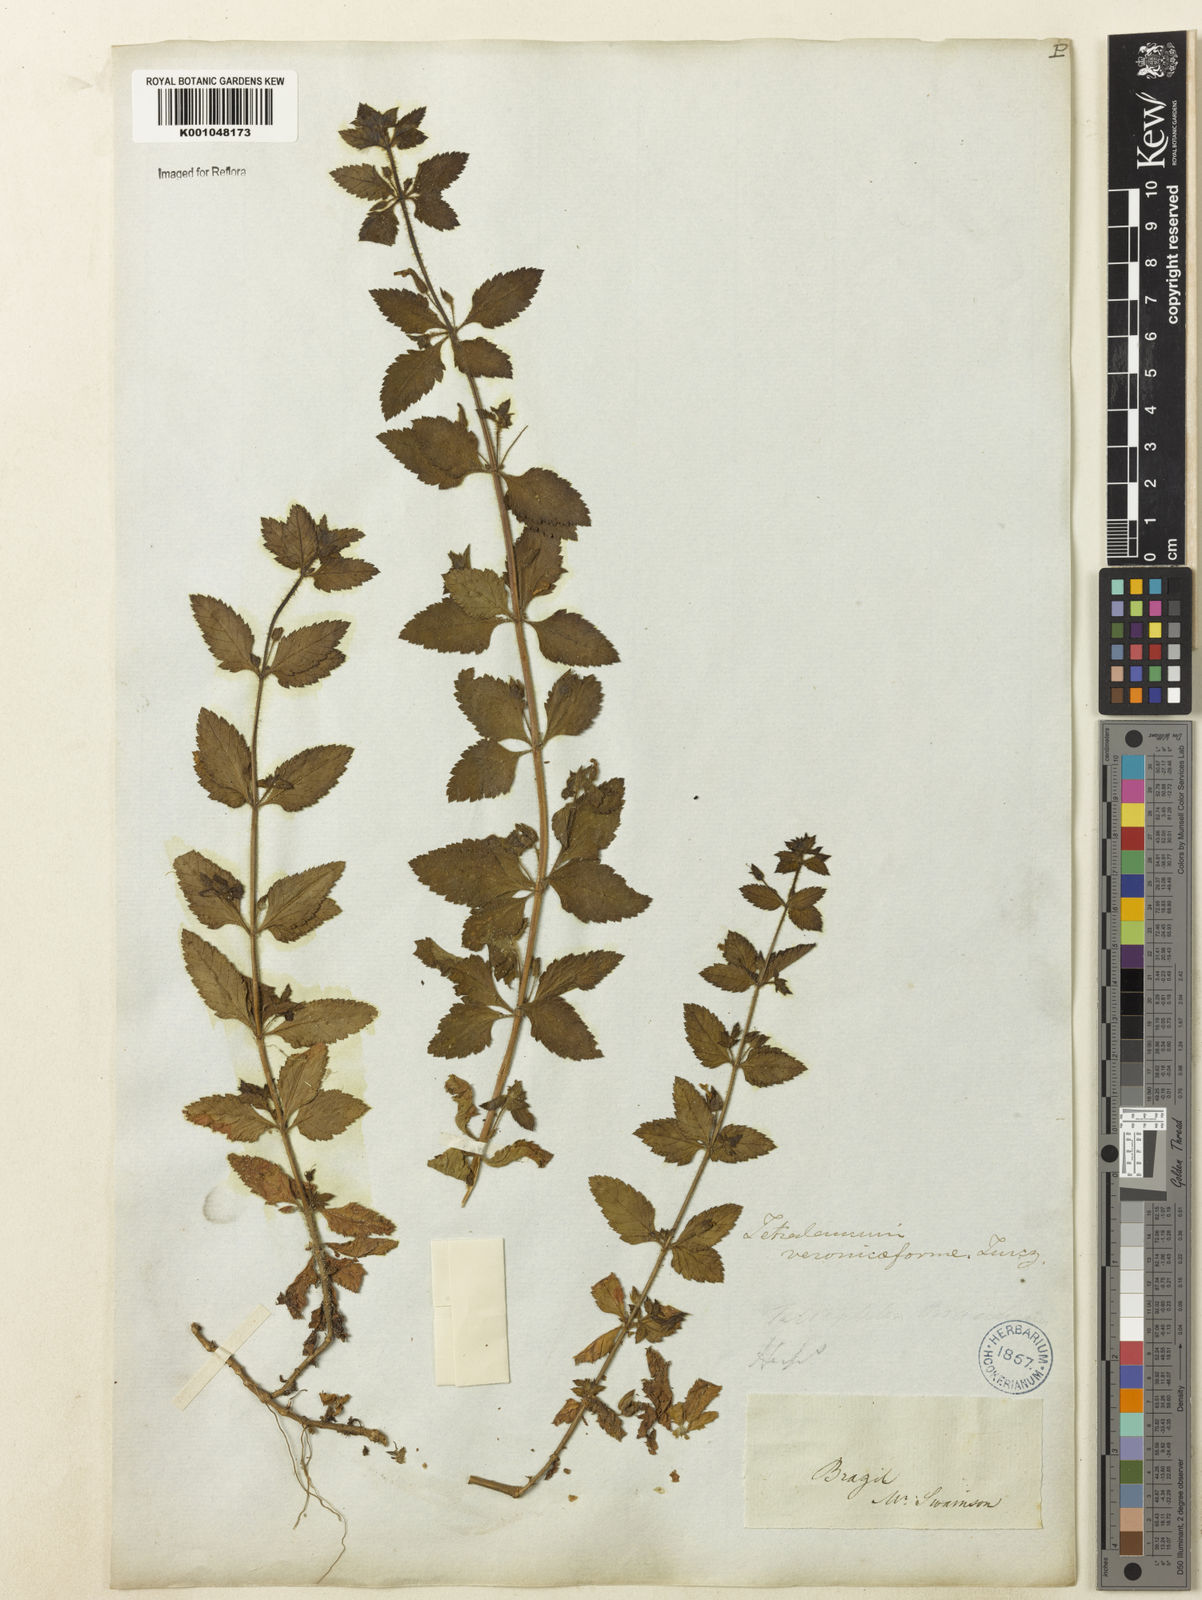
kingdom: Plantae
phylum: Tracheophyta
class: Magnoliopsida
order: Lamiales
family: Plantaginaceae
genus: Tetraulacium
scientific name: Tetraulacium veroniciforme
